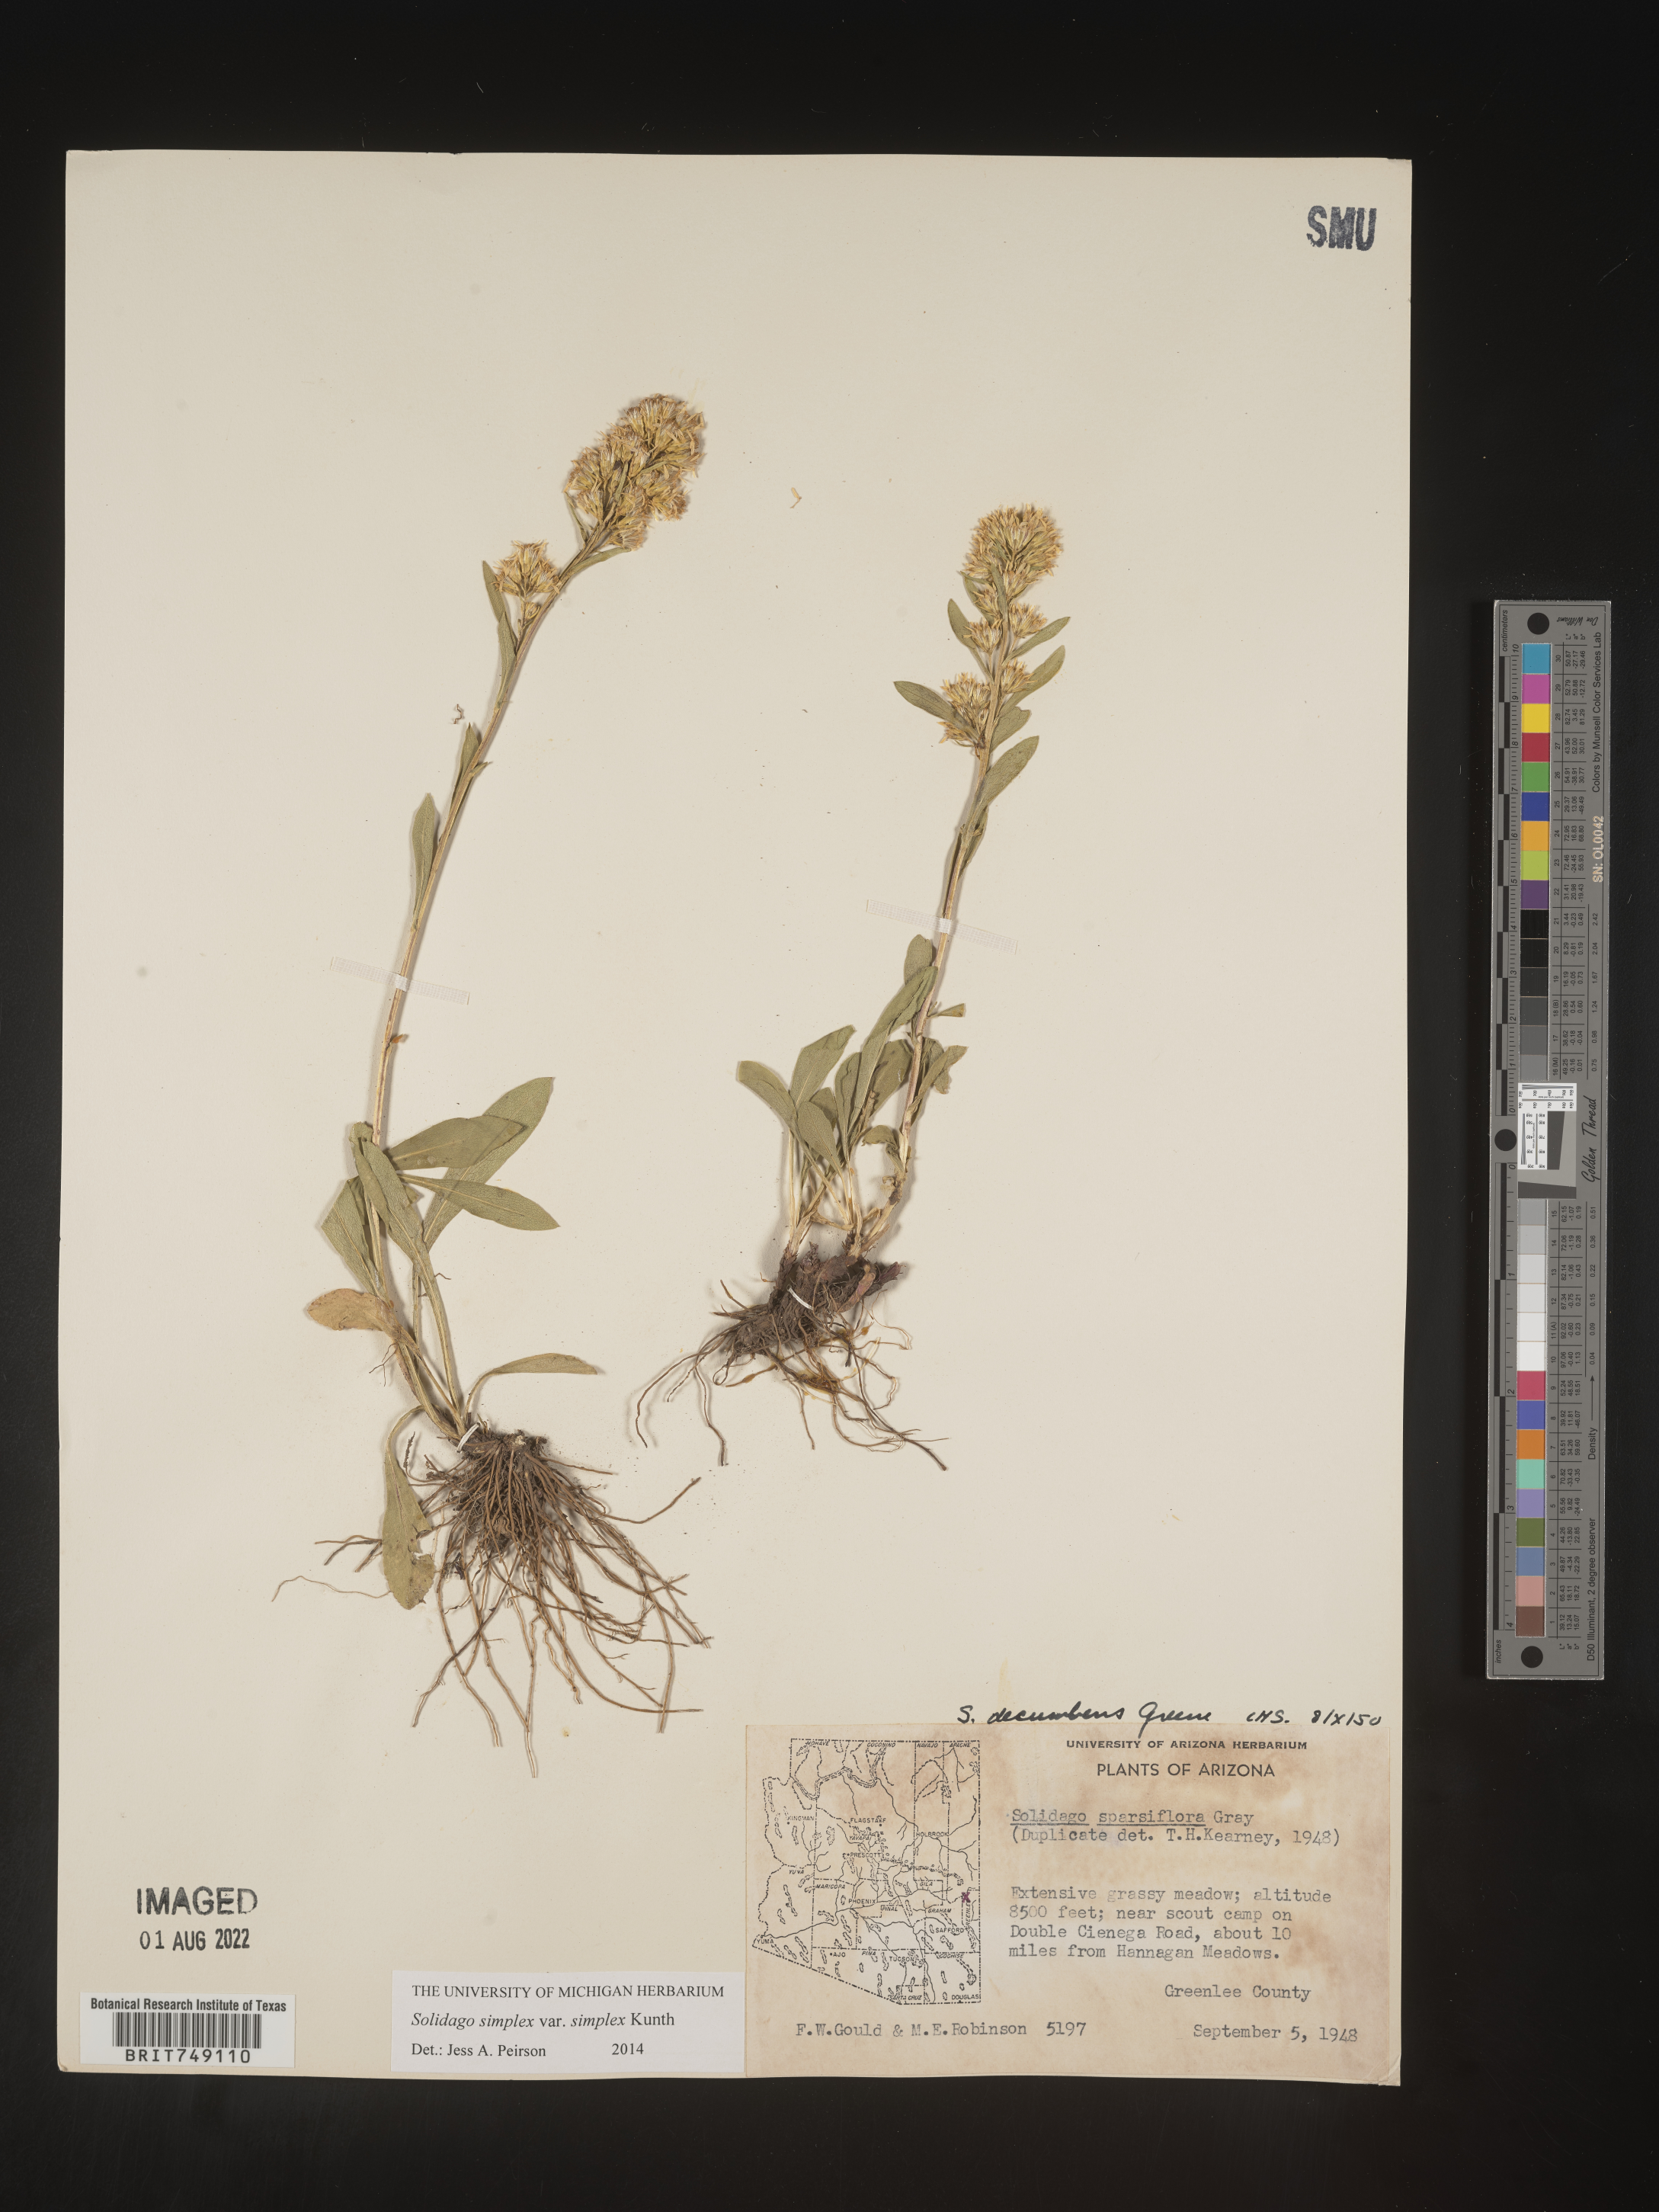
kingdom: Plantae
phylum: Tracheophyta
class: Magnoliopsida
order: Asterales
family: Asteraceae
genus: Solidago
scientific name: Solidago simplex
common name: Sticky goldenrod
